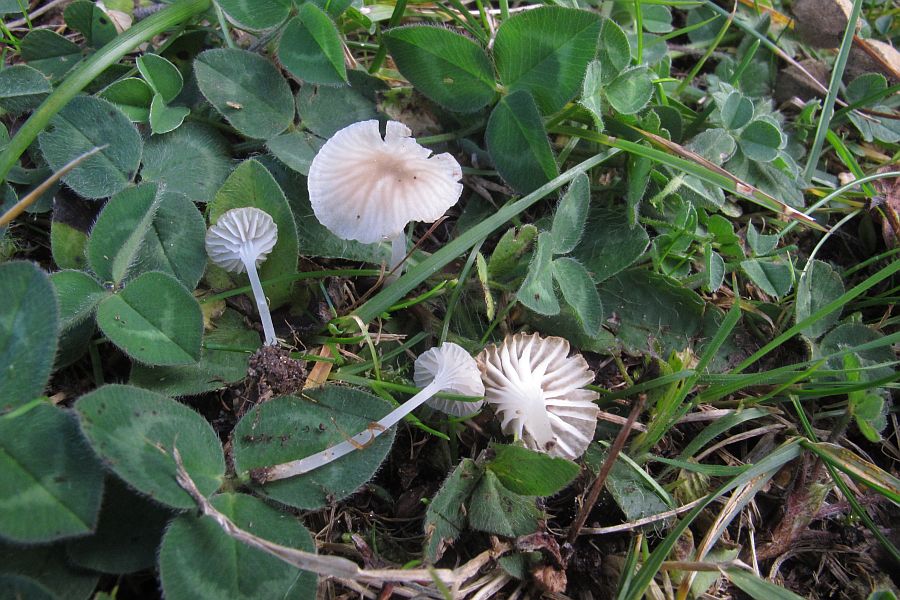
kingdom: Fungi
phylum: Basidiomycota
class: Agaricomycetes
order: Agaricales
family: Mycenaceae
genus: Hemimycena
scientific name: Hemimycena mairei
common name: voks-huesvamp
